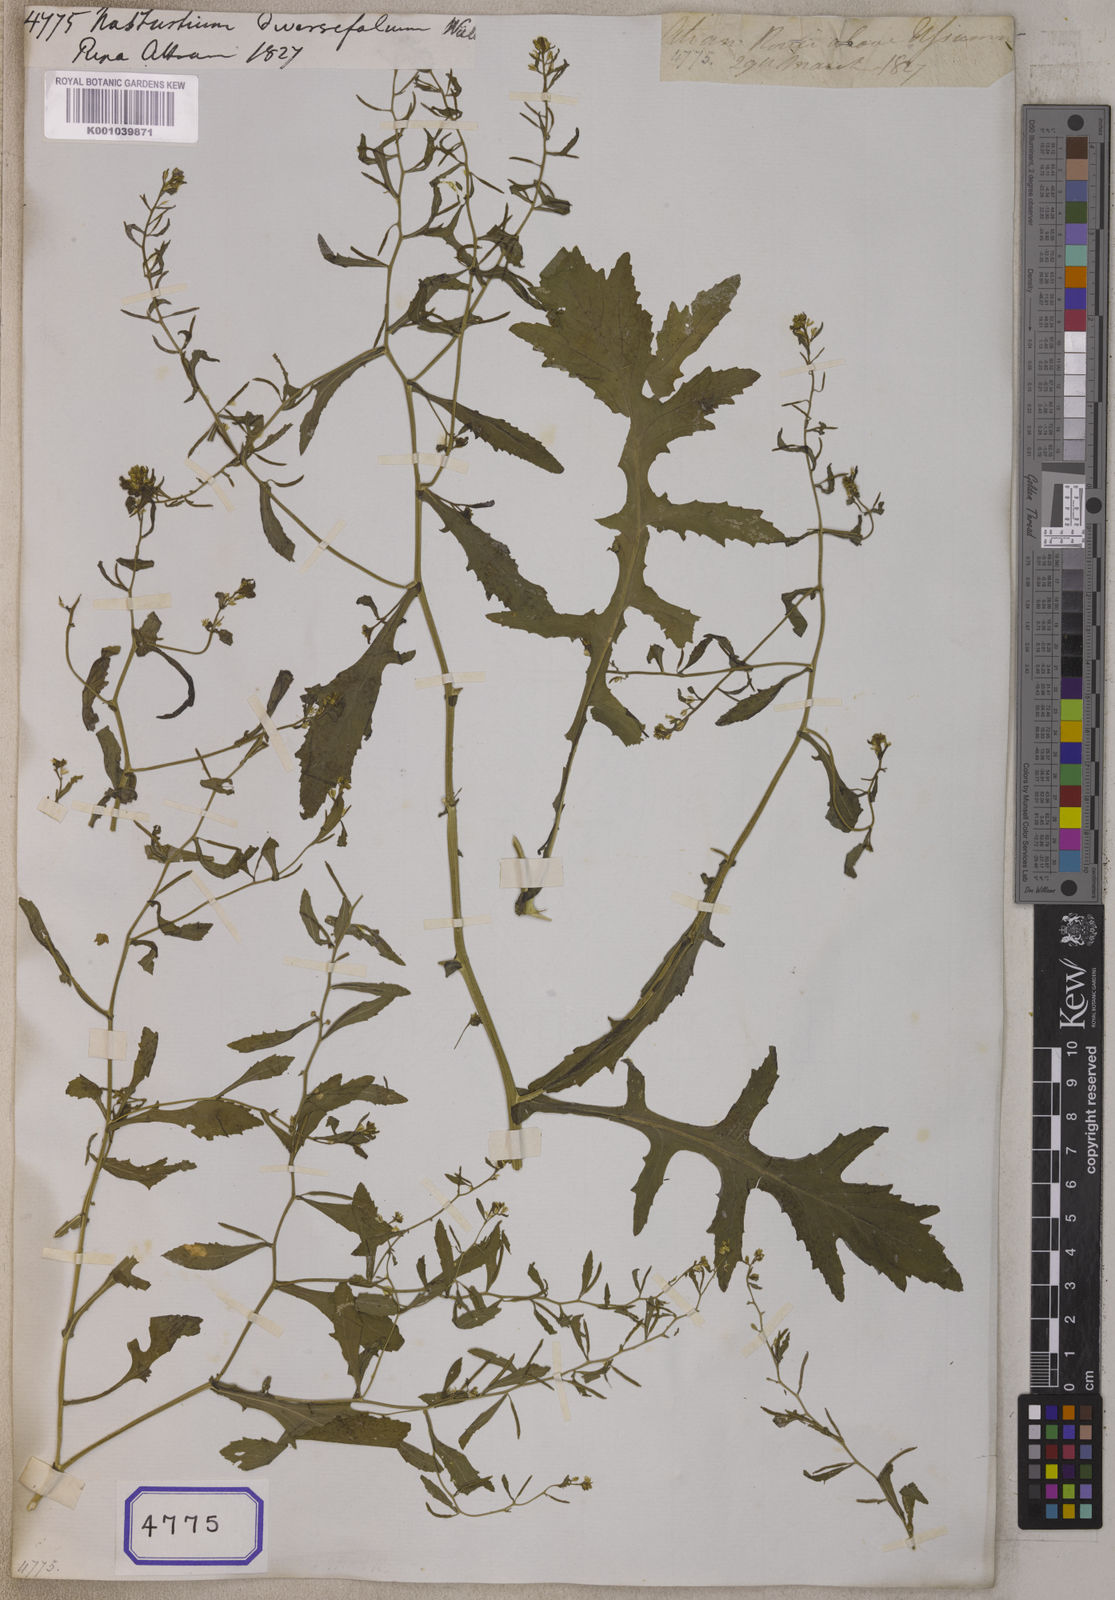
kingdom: Plantae
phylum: Tracheophyta
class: Magnoliopsida
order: Brassicales
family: Brassicaceae
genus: Rorippa
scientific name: Rorippa palustris
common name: Marsh yellow-cress
